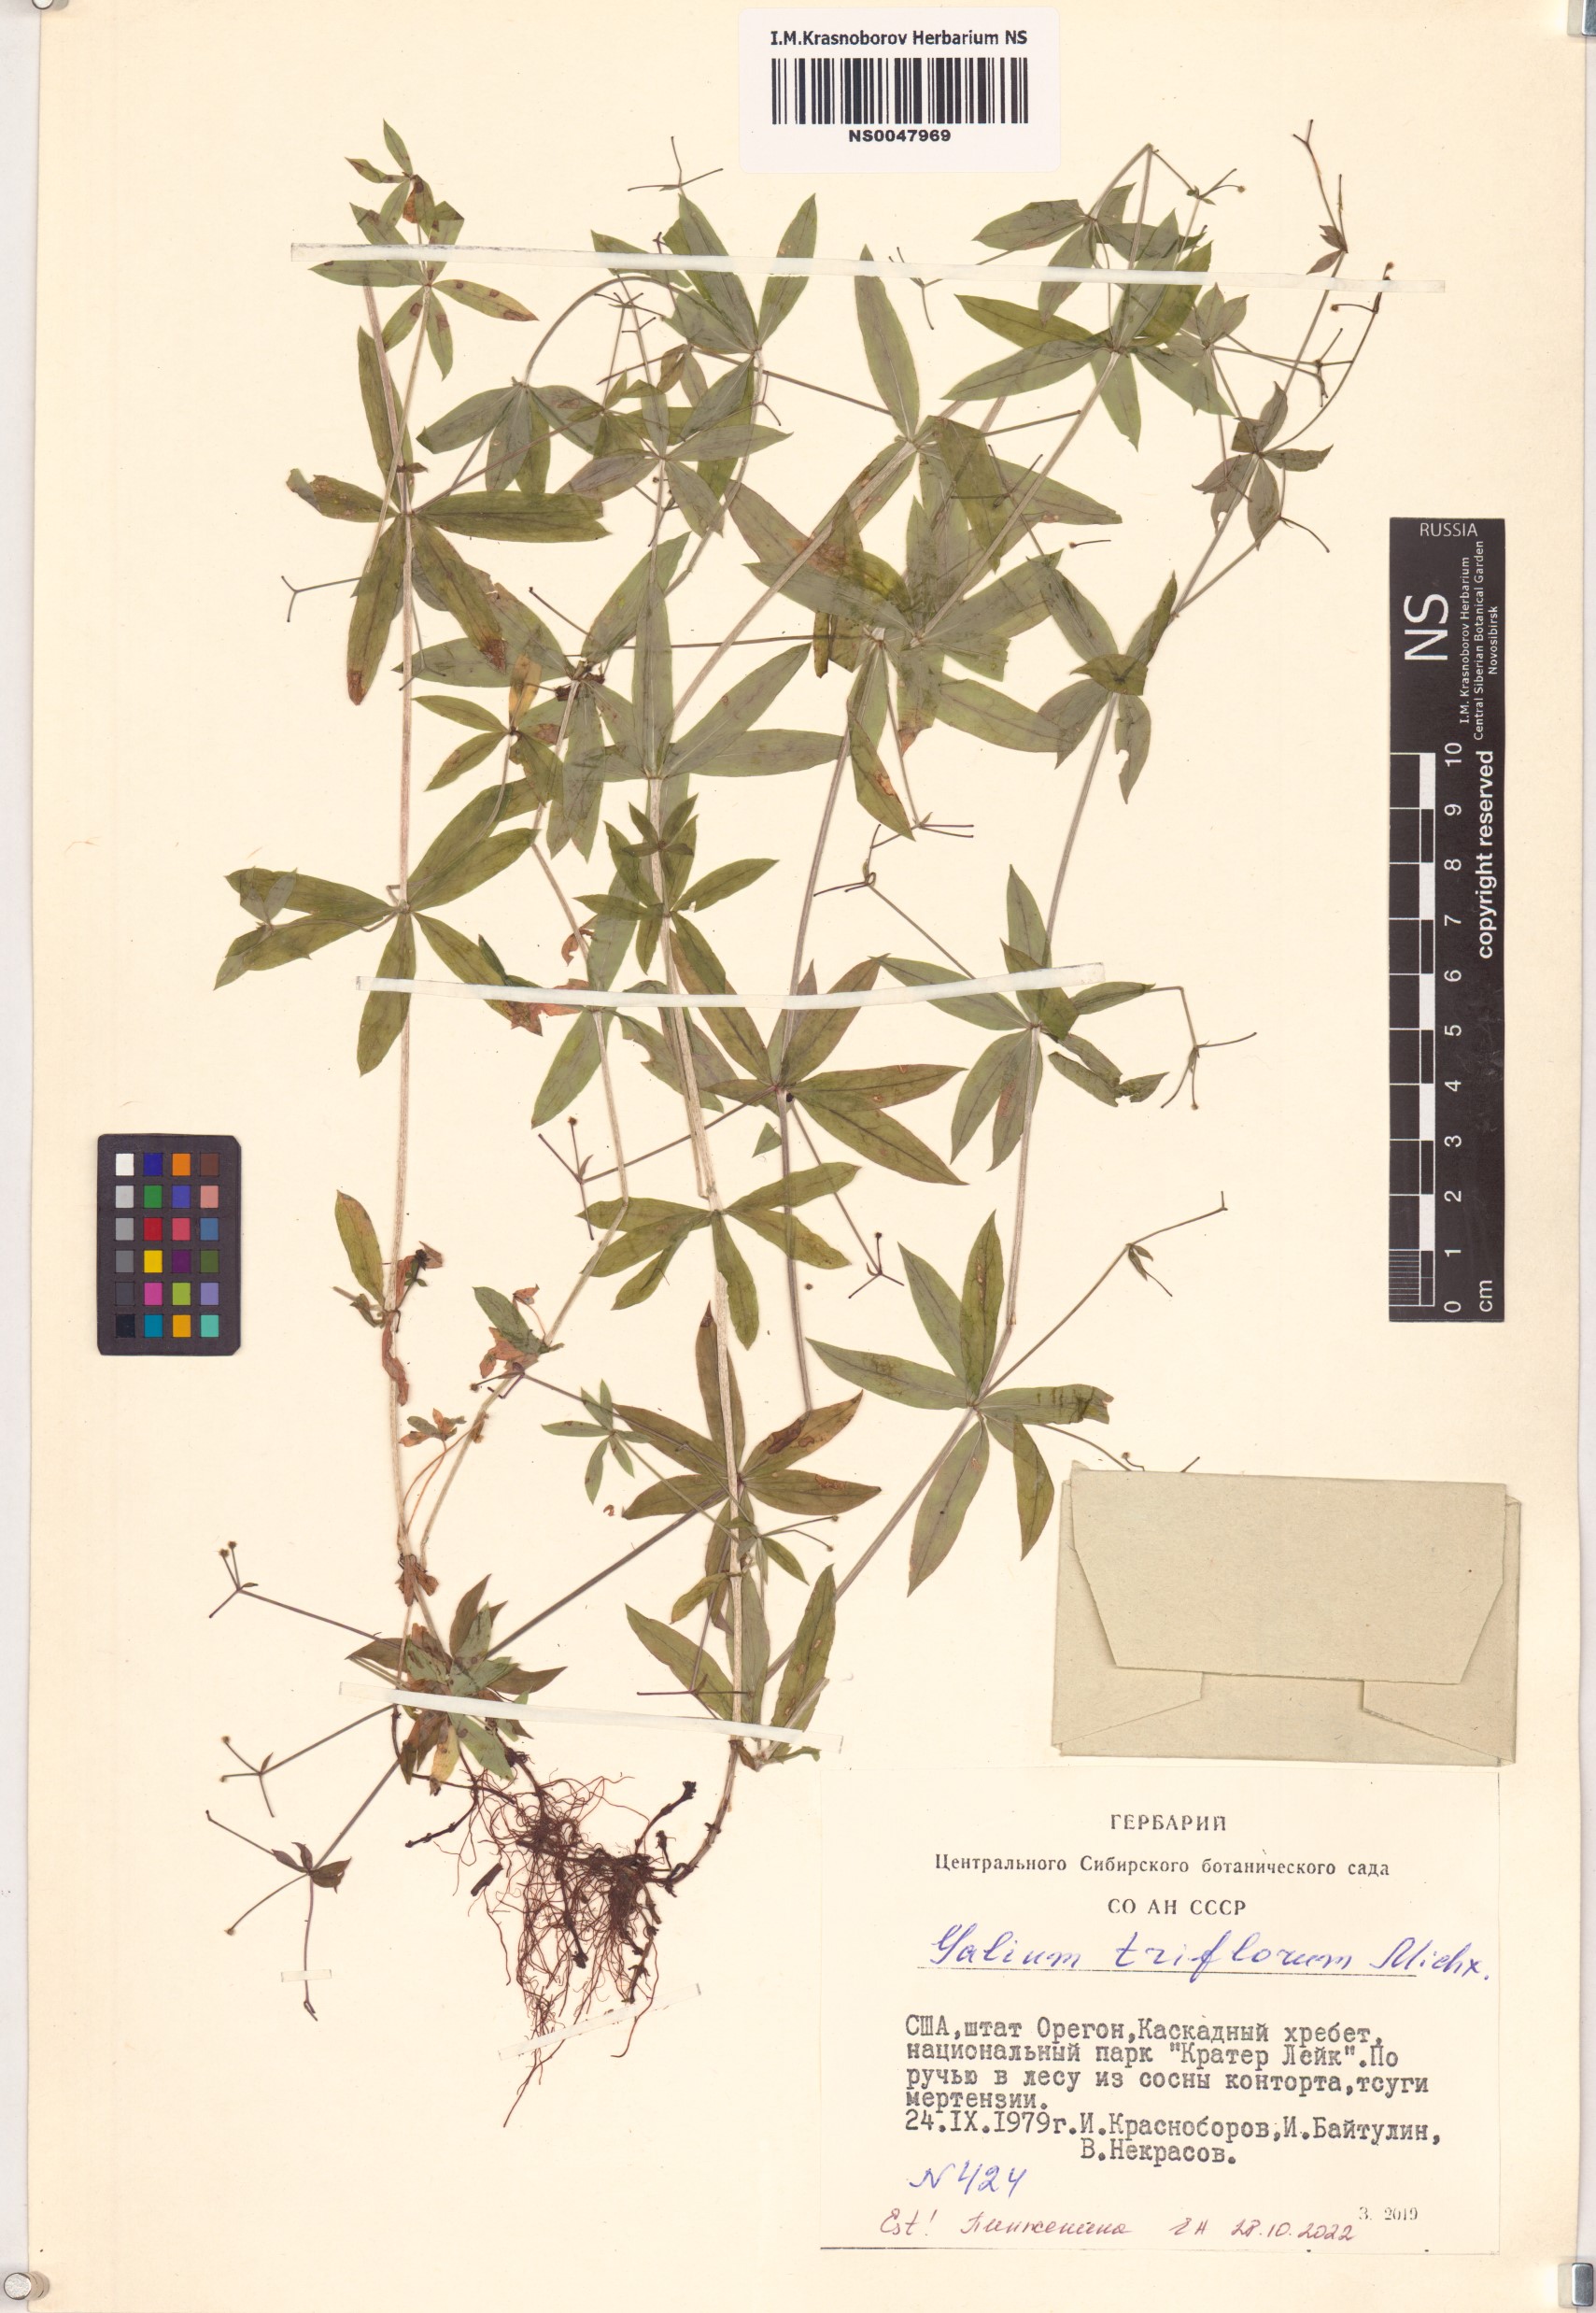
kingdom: Plantae
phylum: Tracheophyta
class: Magnoliopsida
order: Gentianales
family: Rubiaceae
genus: Galium
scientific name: Galium triflorum
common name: Fragrant bedstraw
